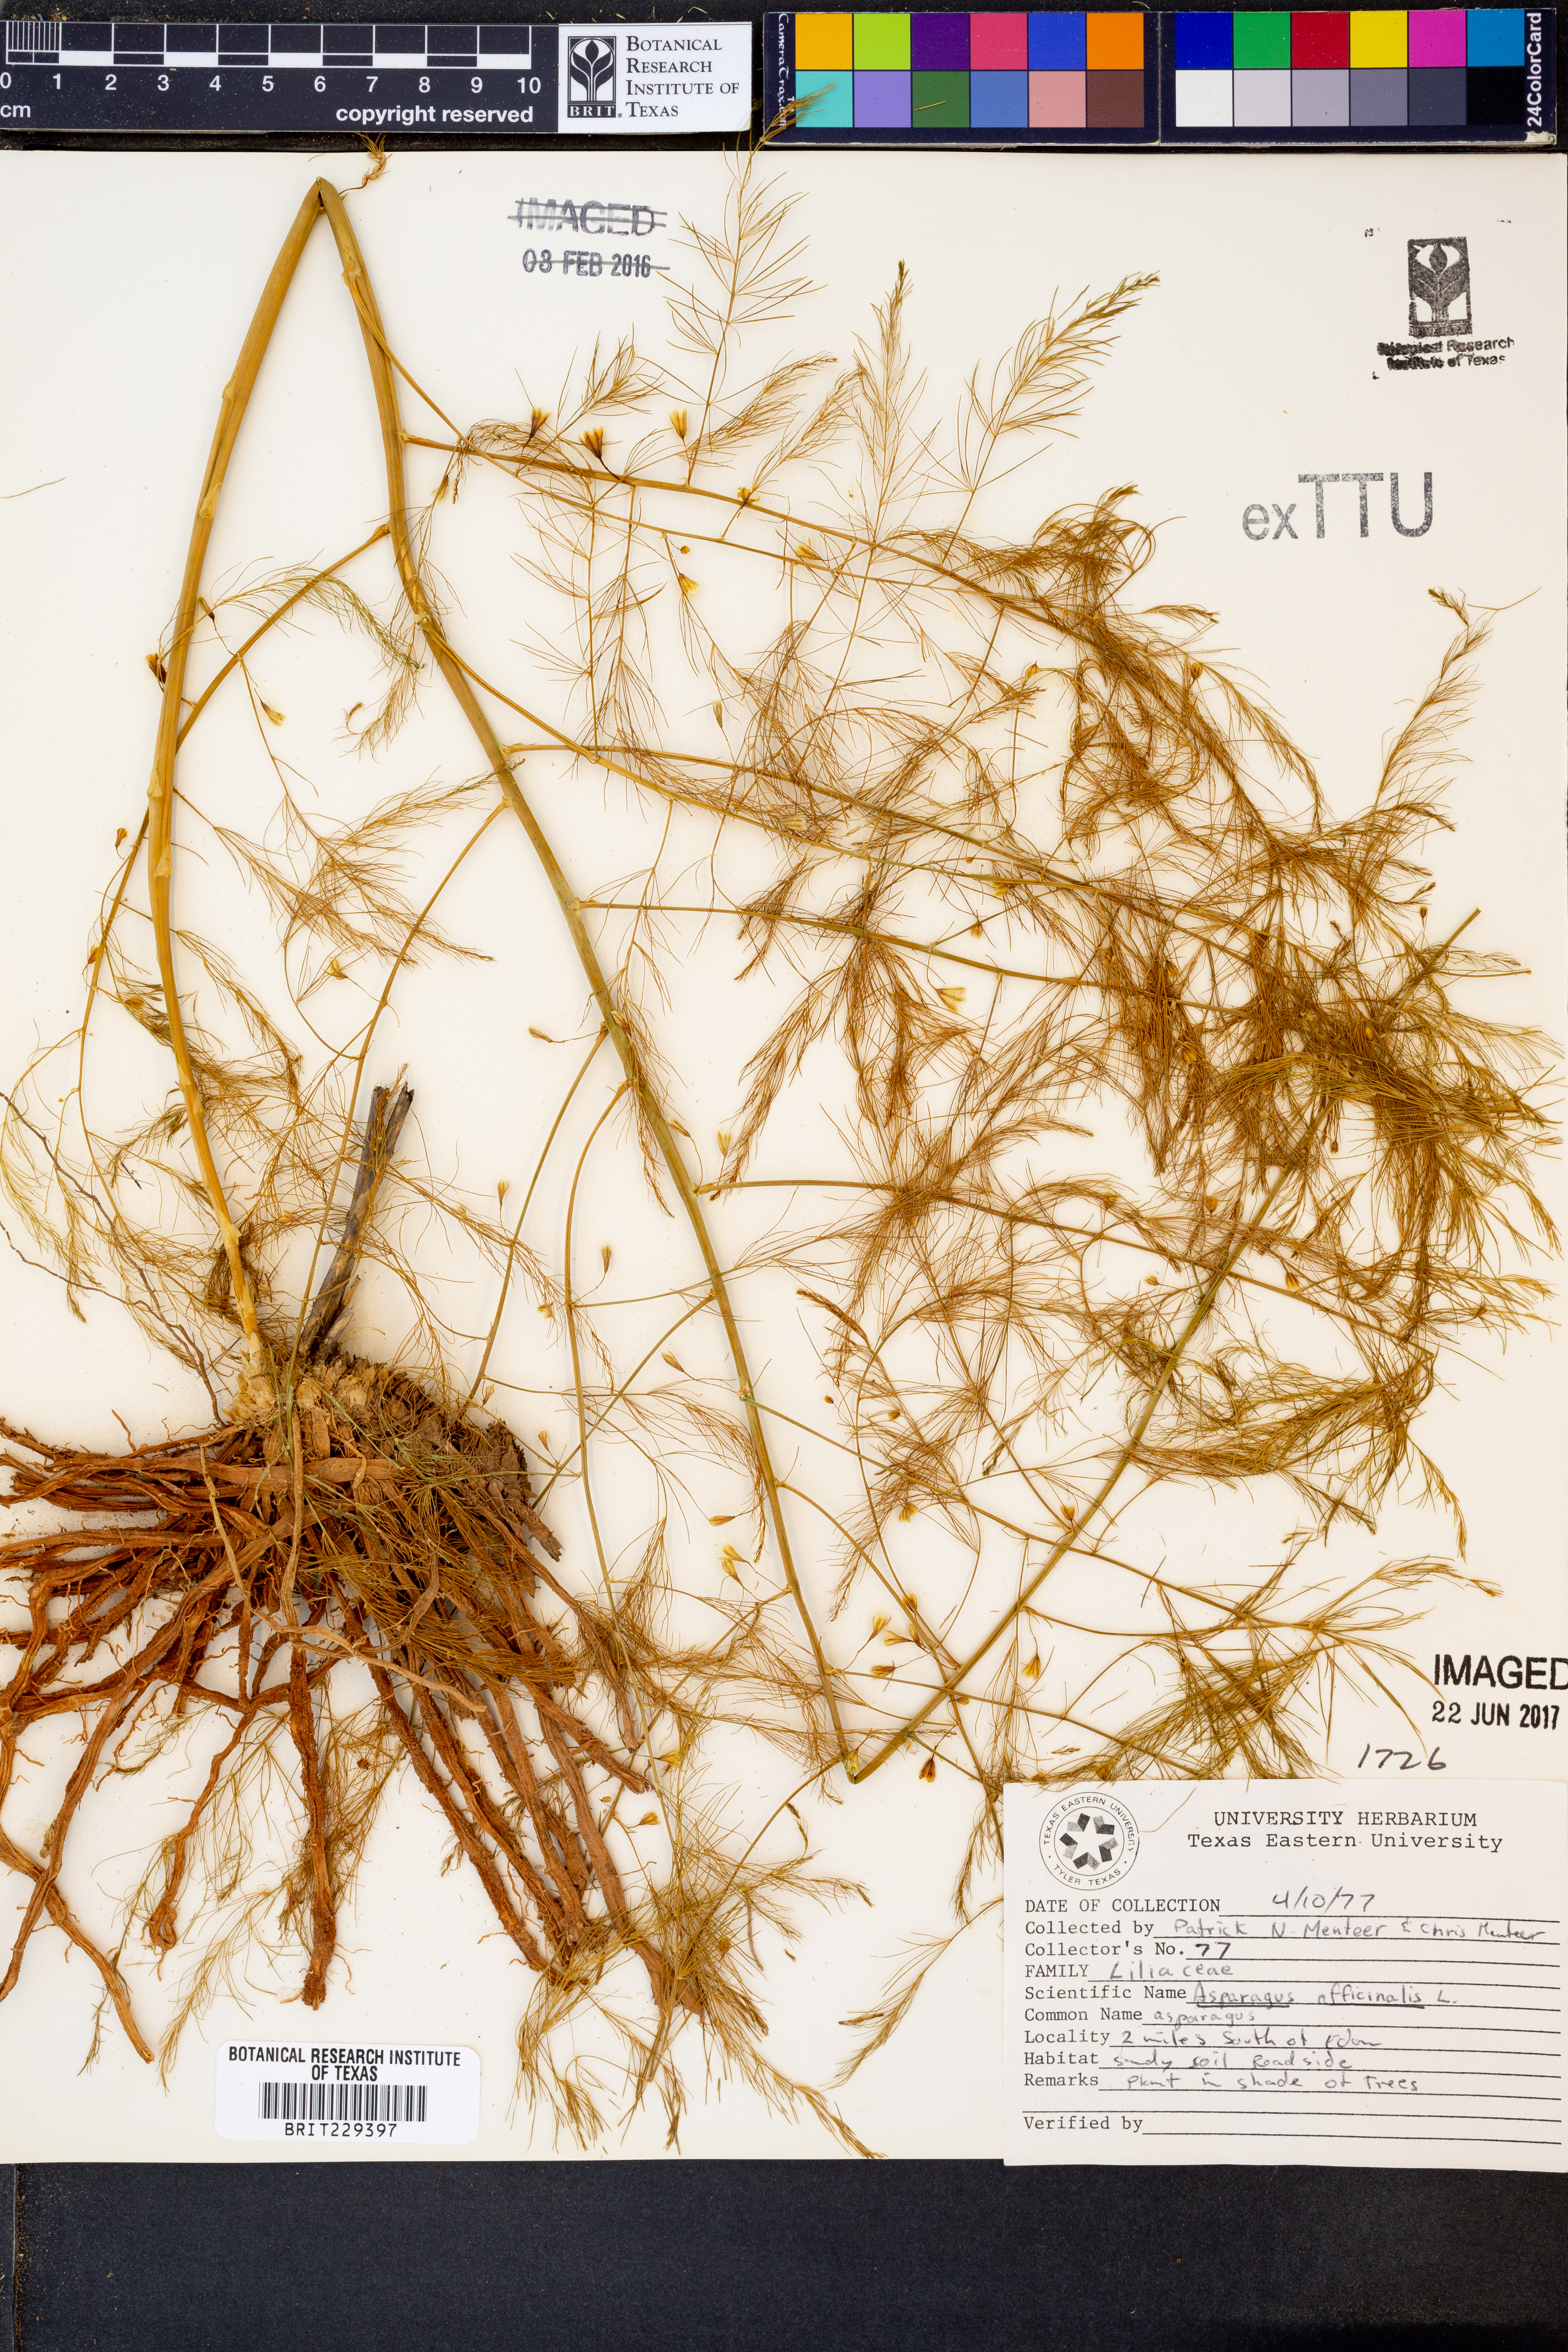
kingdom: Plantae
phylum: Tracheophyta
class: Liliopsida
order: Asparagales
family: Asparagaceae
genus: Asparagus
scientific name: Asparagus officinalis
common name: Garden asparagus
